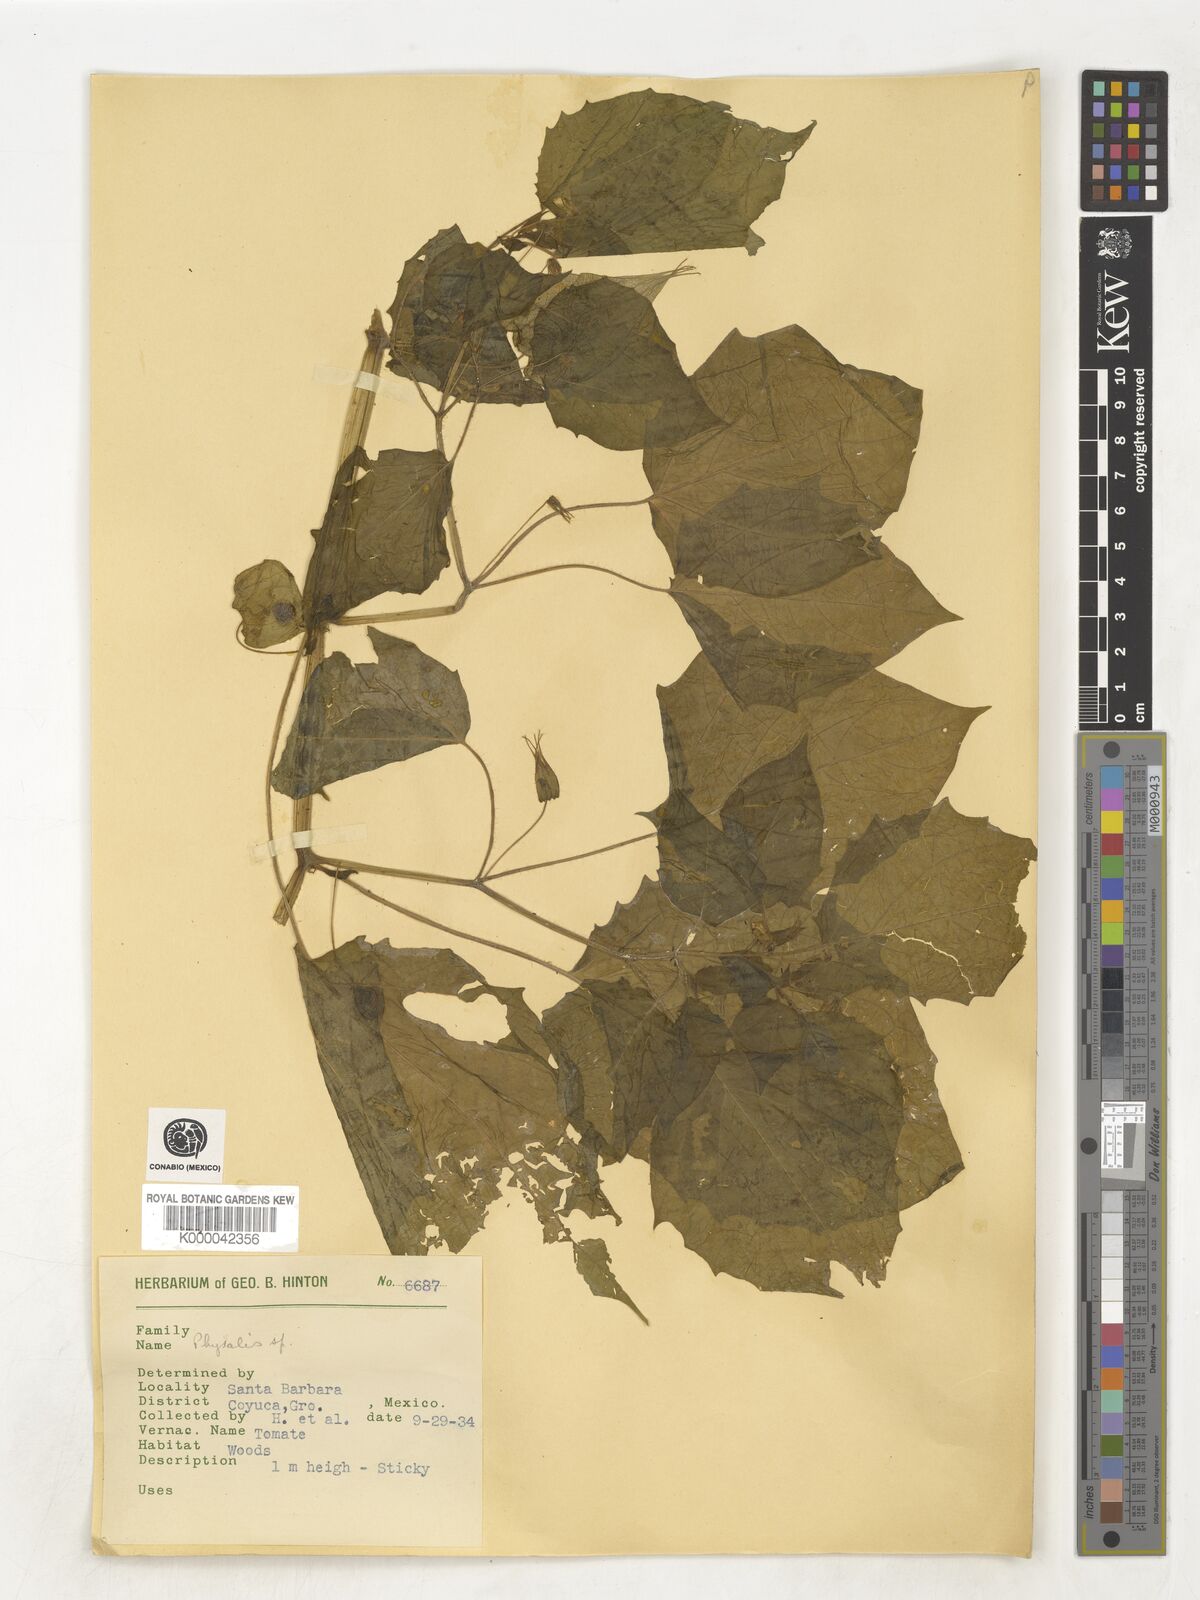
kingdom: Plantae
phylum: Tracheophyta
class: Magnoliopsida
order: Solanales
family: Solanaceae
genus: Physalis
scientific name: Physalis
